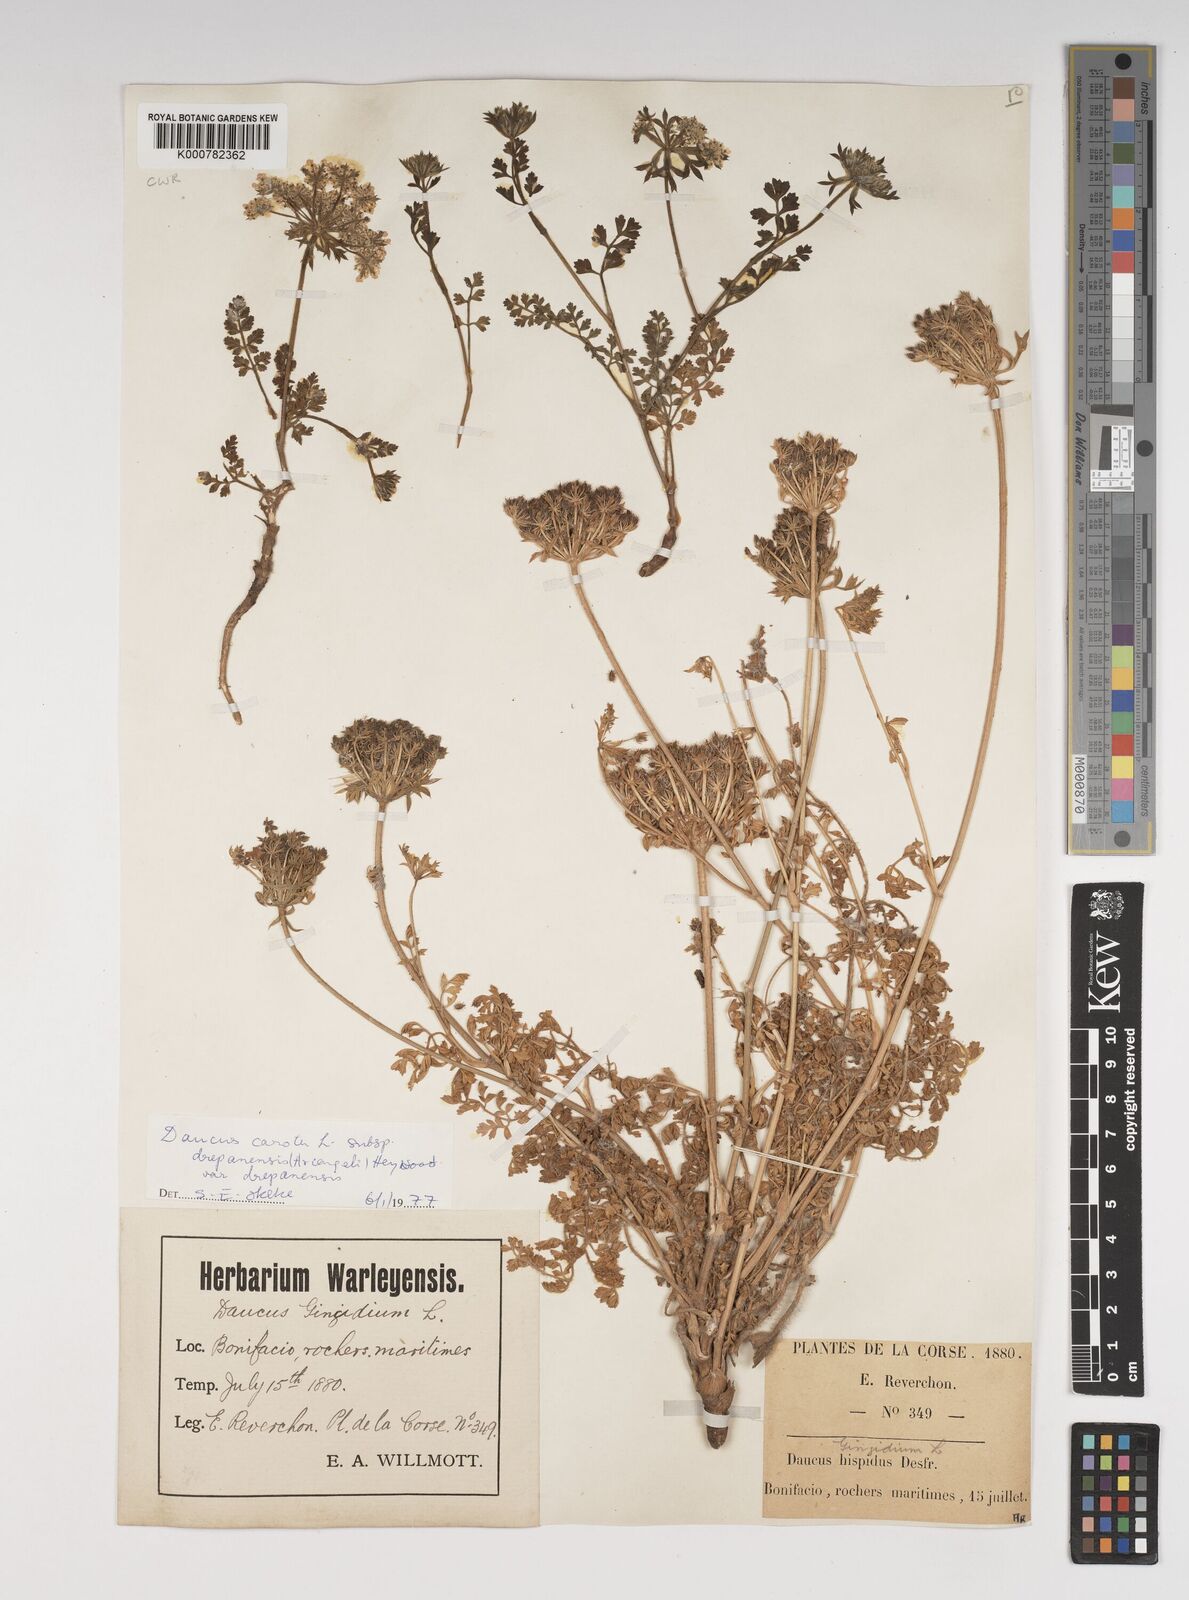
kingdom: Plantae
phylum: Tracheophyta
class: Magnoliopsida
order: Apiales
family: Apiaceae
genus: Daucus
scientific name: Daucus carota
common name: Wild carrot
